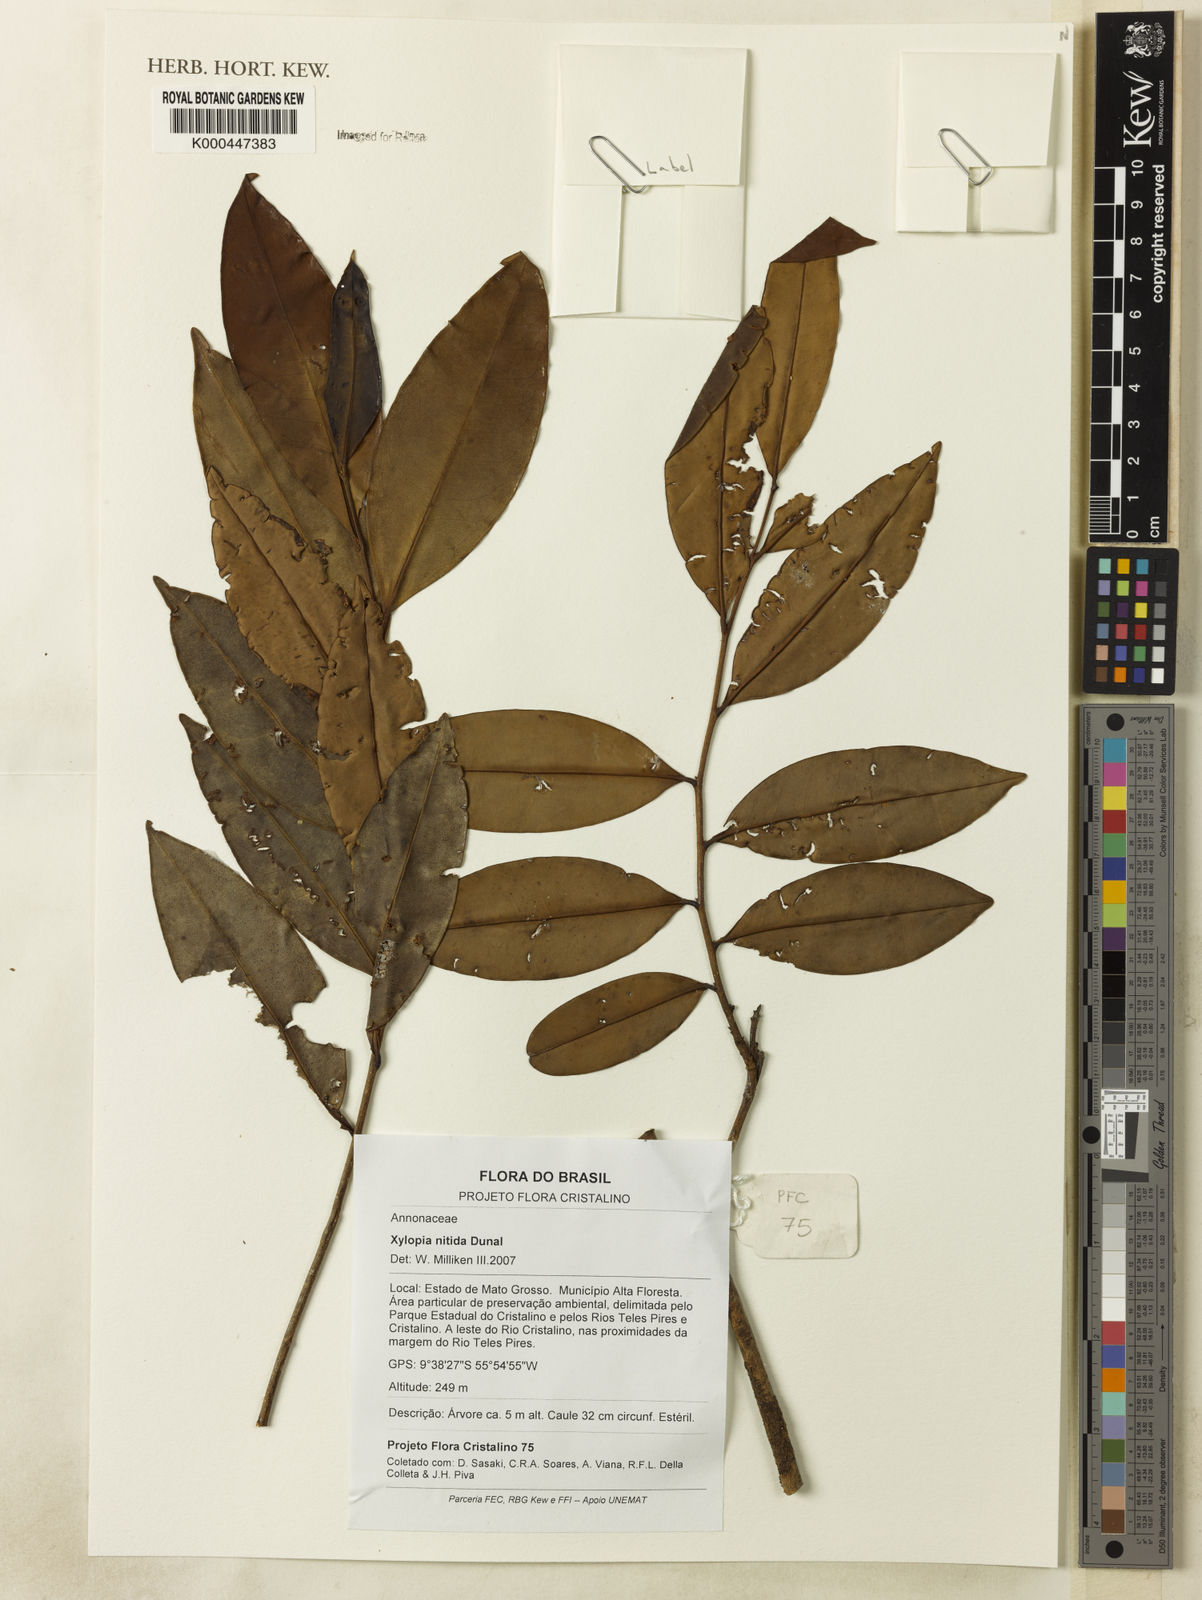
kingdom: Plantae
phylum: Tracheophyta
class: Magnoliopsida
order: Magnoliales
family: Annonaceae
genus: Xylopia
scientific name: Xylopia nitida
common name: White kuyama
